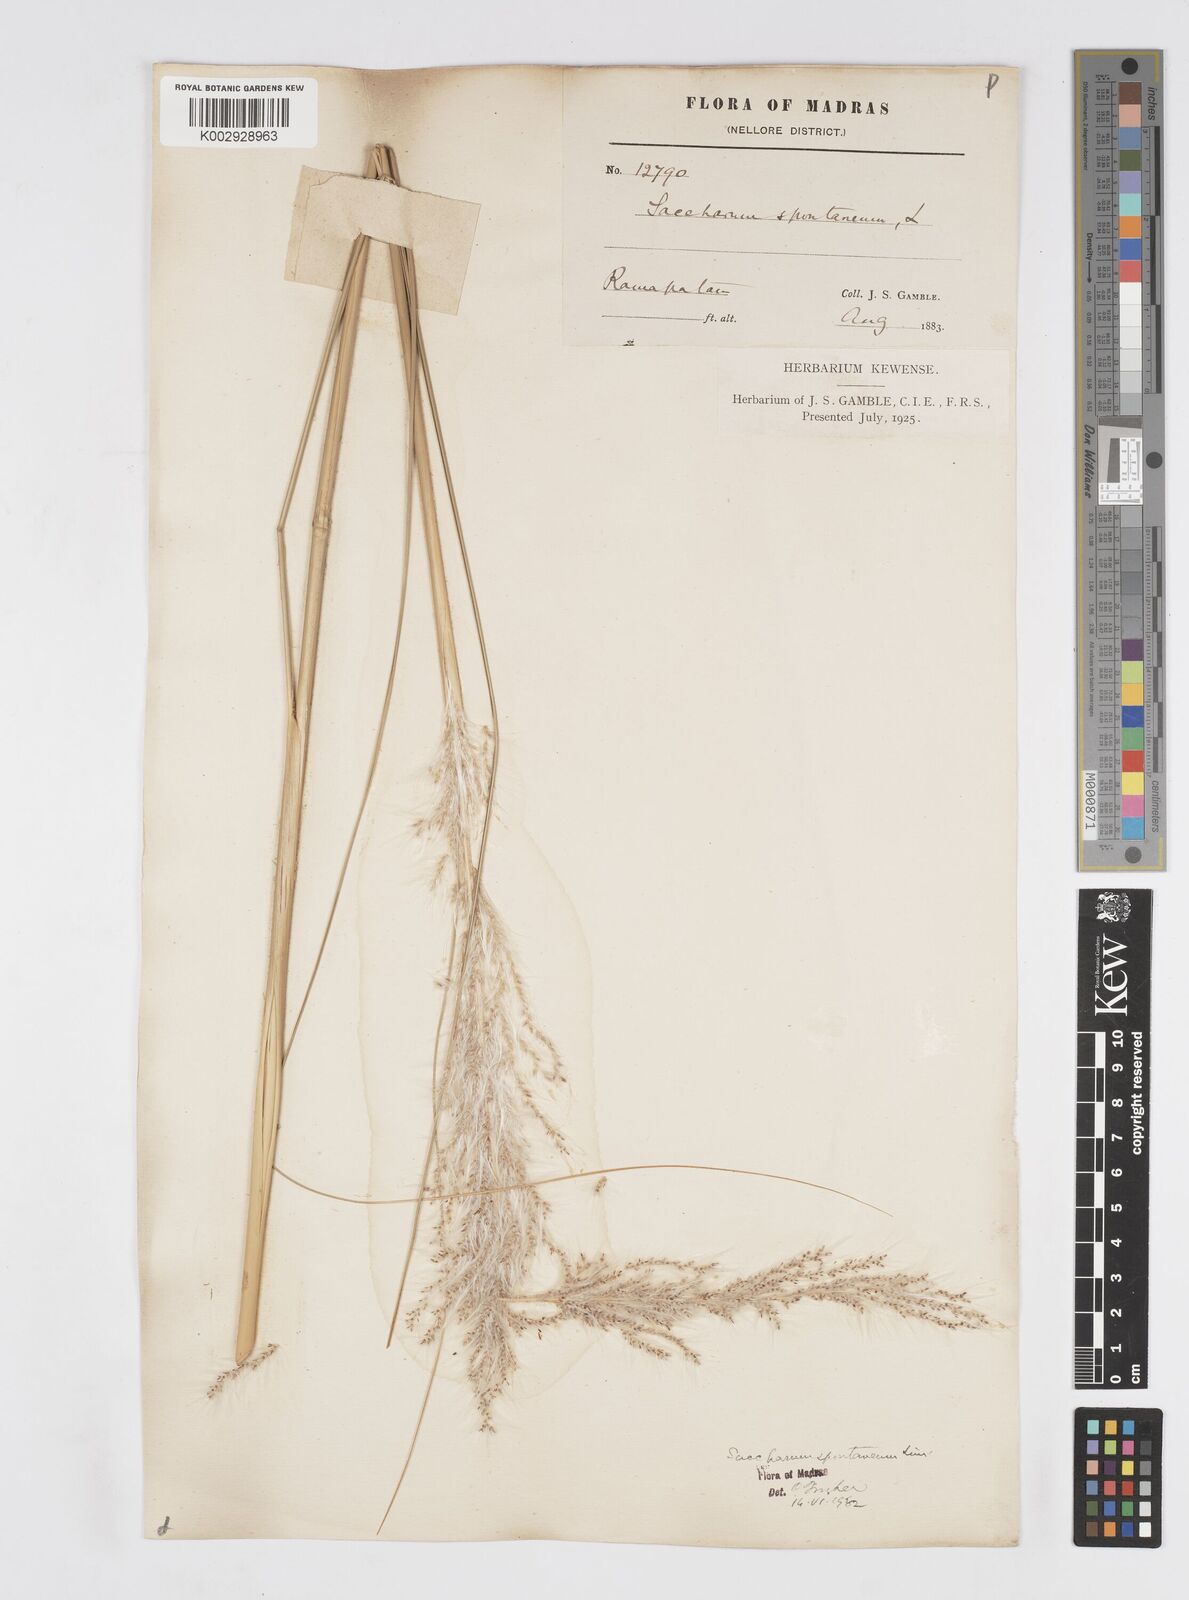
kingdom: Plantae
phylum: Tracheophyta
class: Liliopsida
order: Poales
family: Poaceae
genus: Saccharum
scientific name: Saccharum spontaneum
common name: Wild sugarcane
